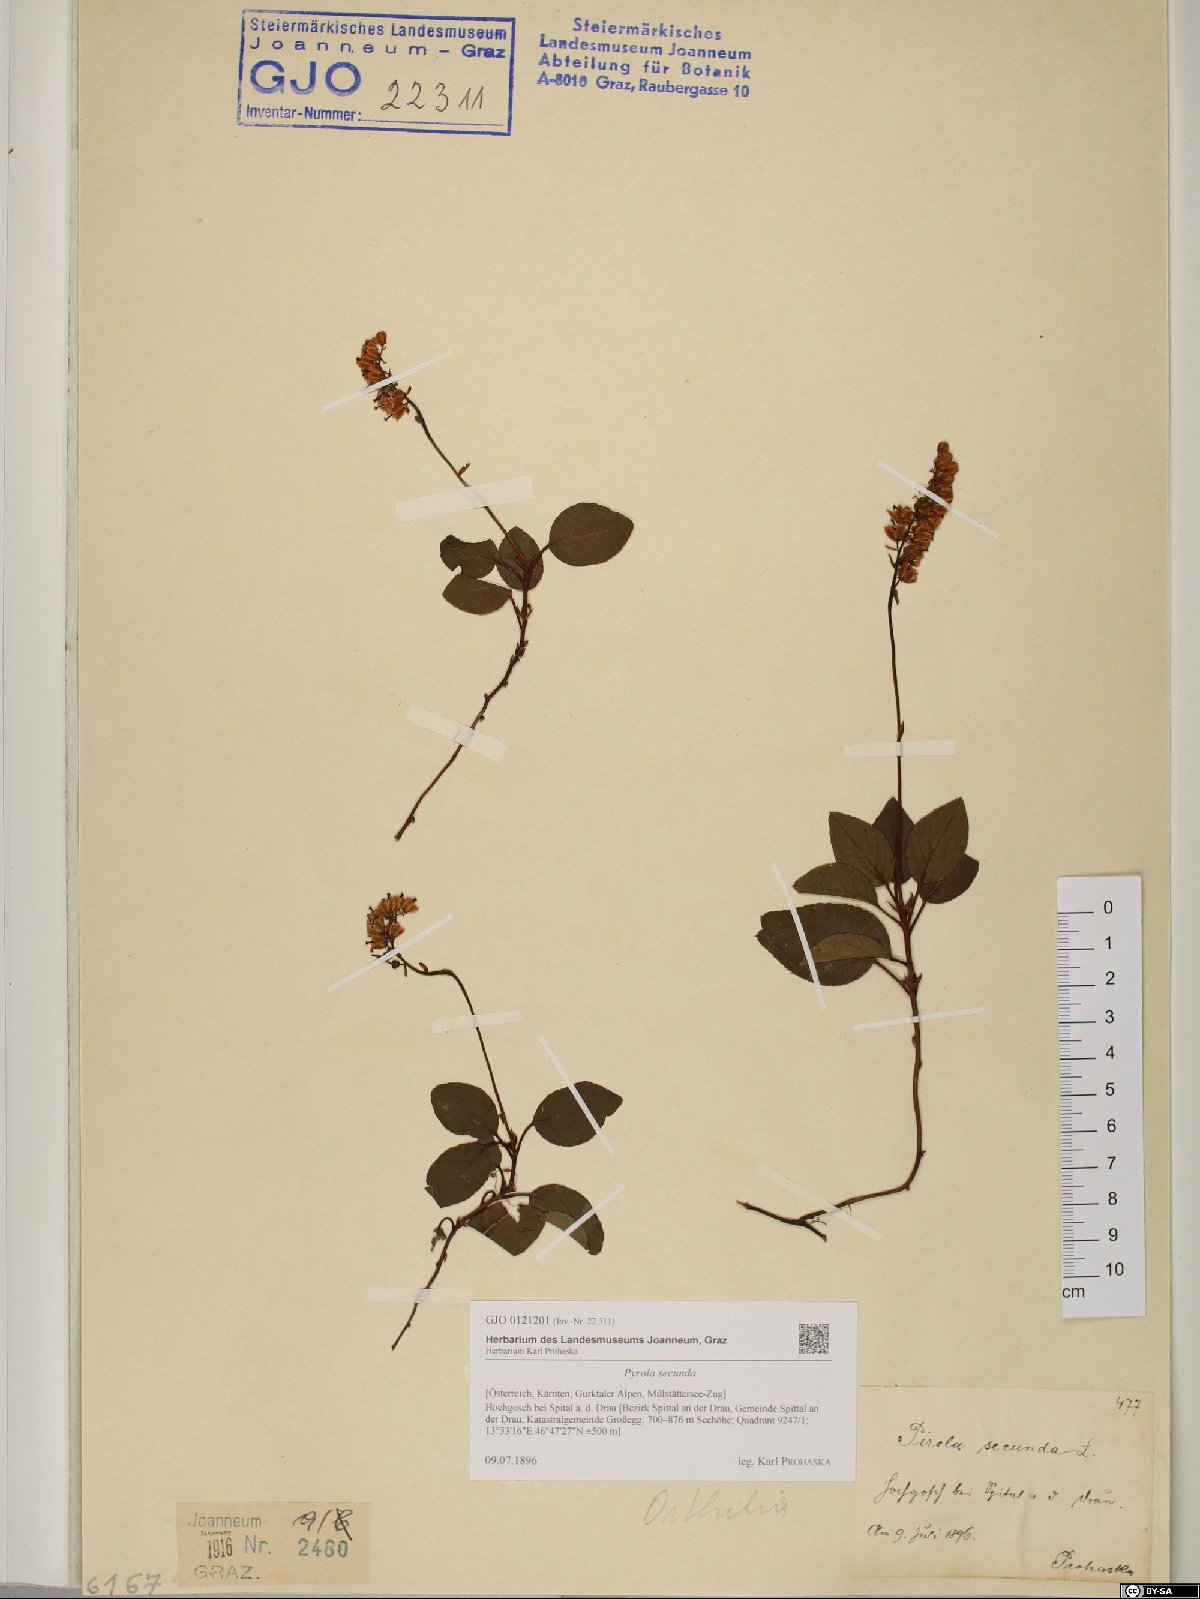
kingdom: Plantae
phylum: Tracheophyta
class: Magnoliopsida
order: Ericales
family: Ericaceae
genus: Orthilia
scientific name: Orthilia secunda
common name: One-sided orthilia
